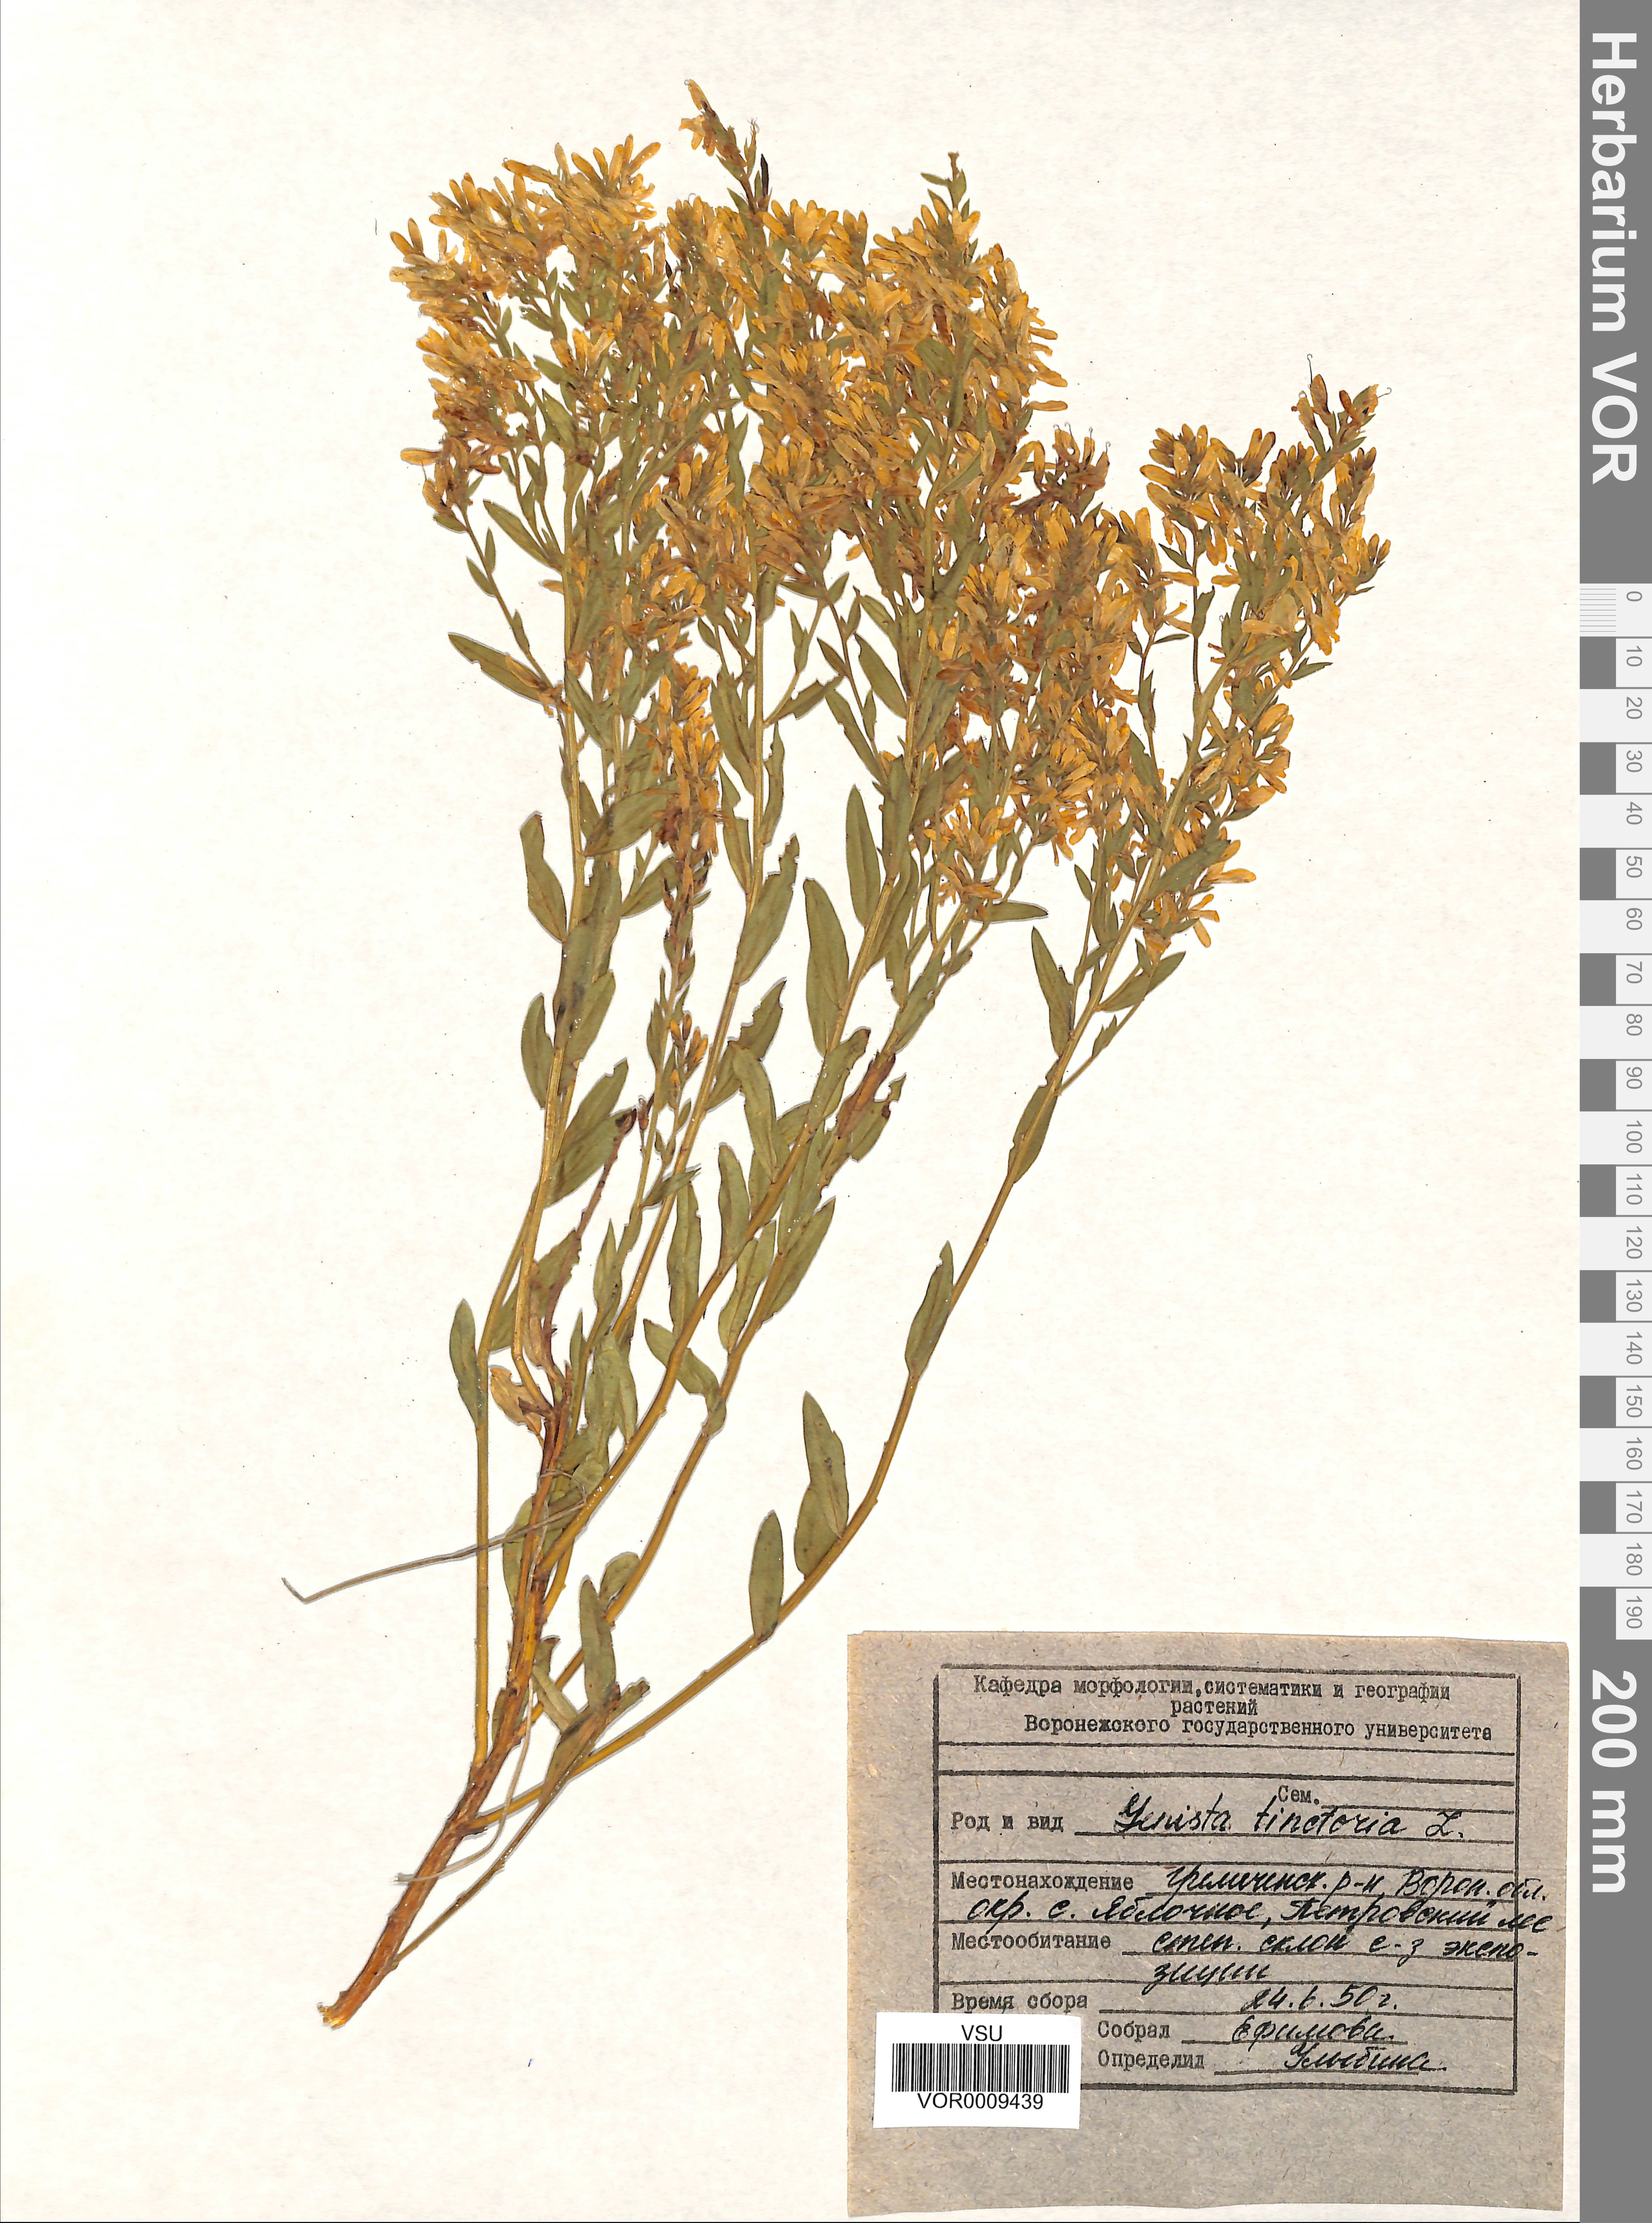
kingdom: Plantae
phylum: Tracheophyta
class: Magnoliopsida
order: Fabales
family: Fabaceae
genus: Genista
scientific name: Genista tinctoria
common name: Dyer's greenweed
